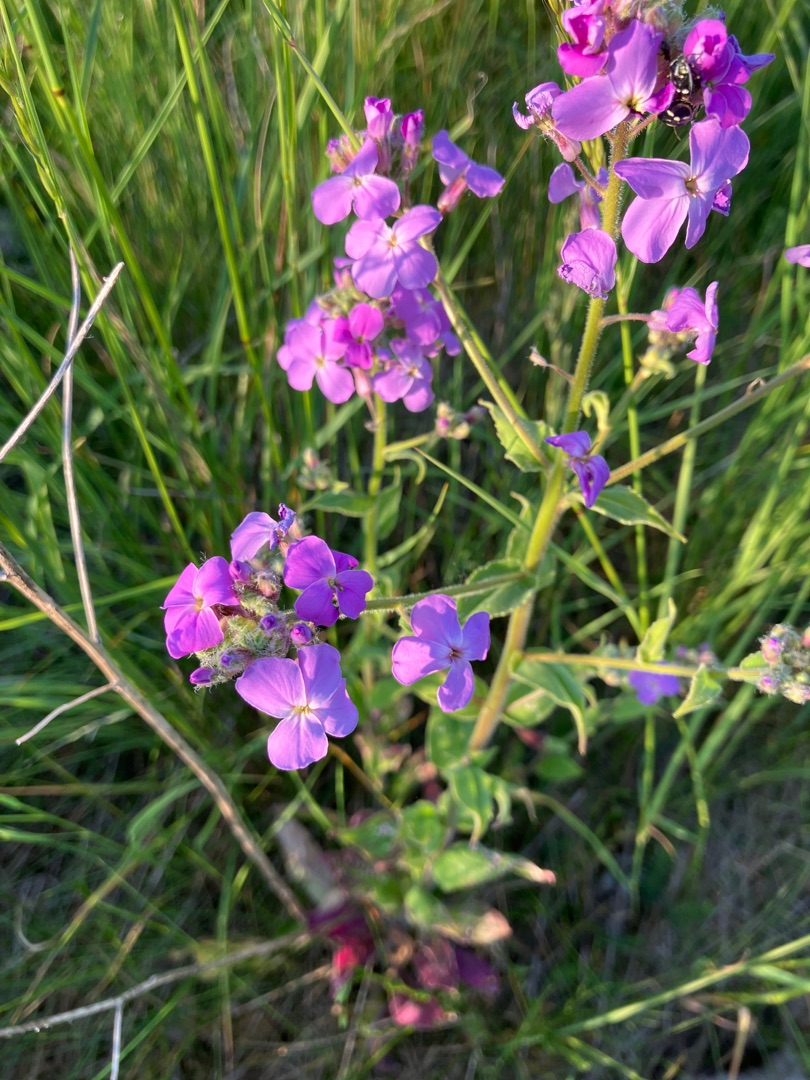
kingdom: Plantae
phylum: Tracheophyta
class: Magnoliopsida
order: Brassicales
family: Brassicaceae
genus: Hesperis
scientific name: Hesperis matronalis
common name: Aftenstjerne
